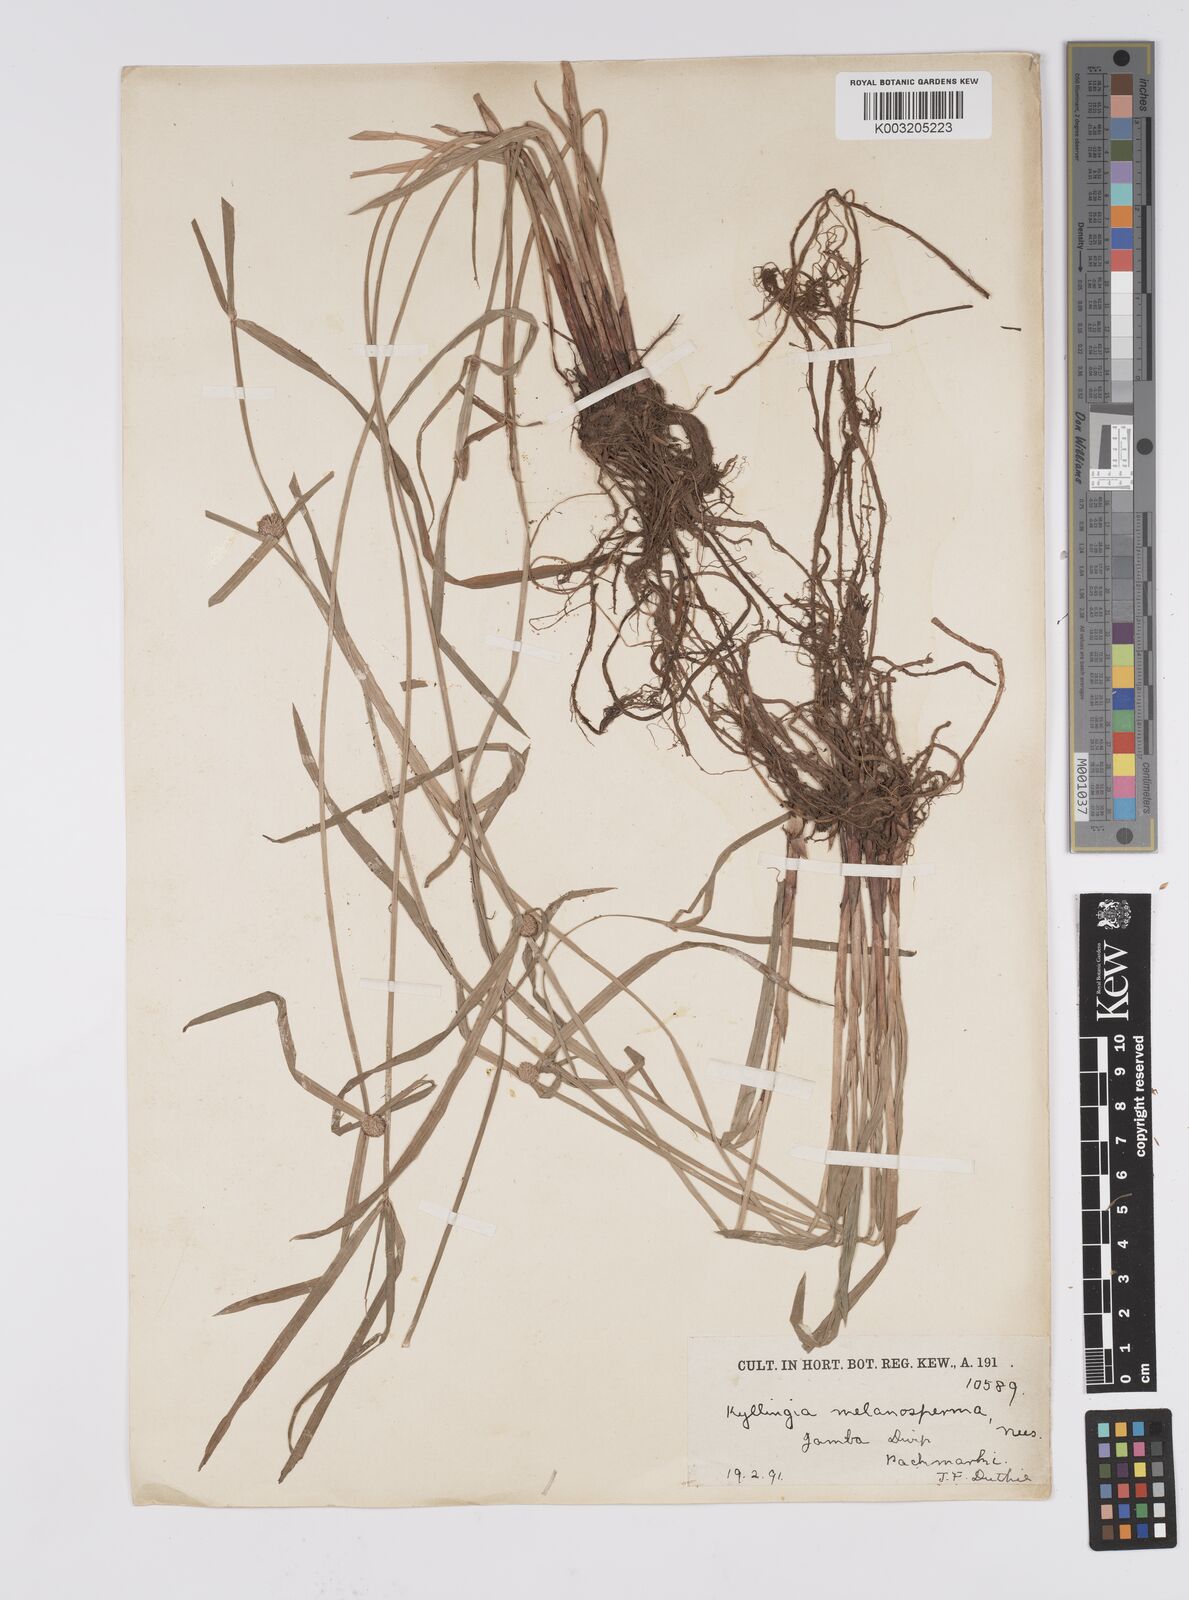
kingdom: Plantae
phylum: Tracheophyta
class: Liliopsida
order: Poales
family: Cyperaceae
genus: Cyperus
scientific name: Cyperus melanospermus
